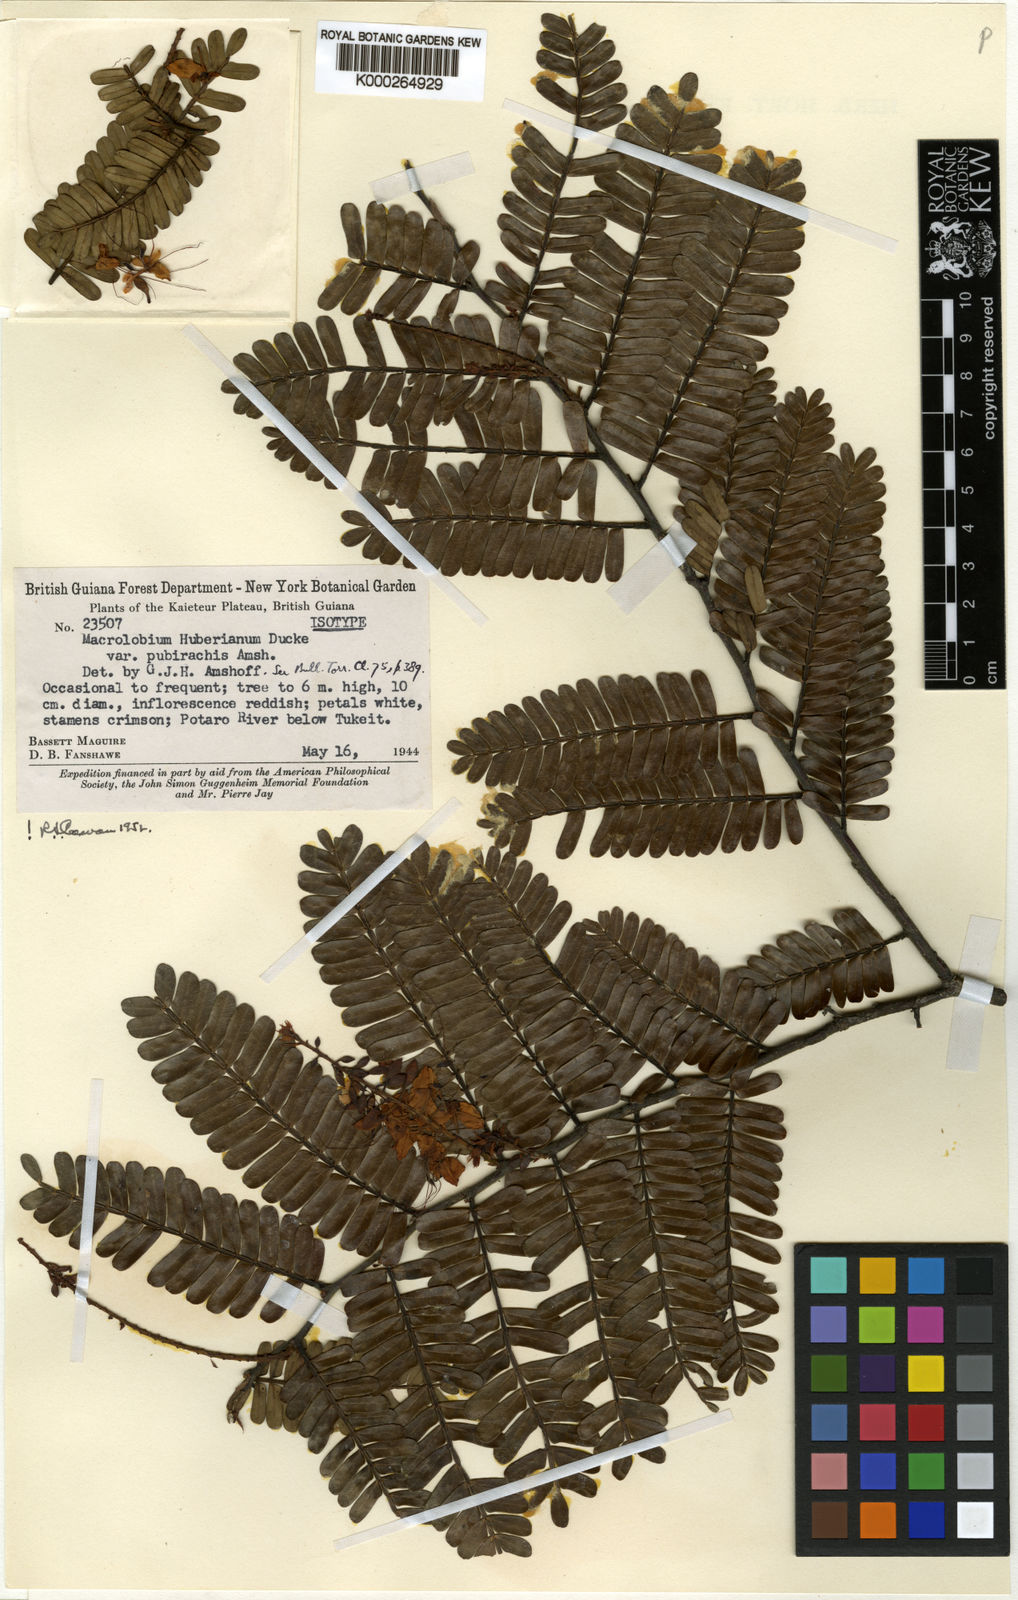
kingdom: Plantae
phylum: Tracheophyta
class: Magnoliopsida
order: Fabales
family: Fabaceae
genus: Macrolobium
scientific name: Macrolobium huberianum
